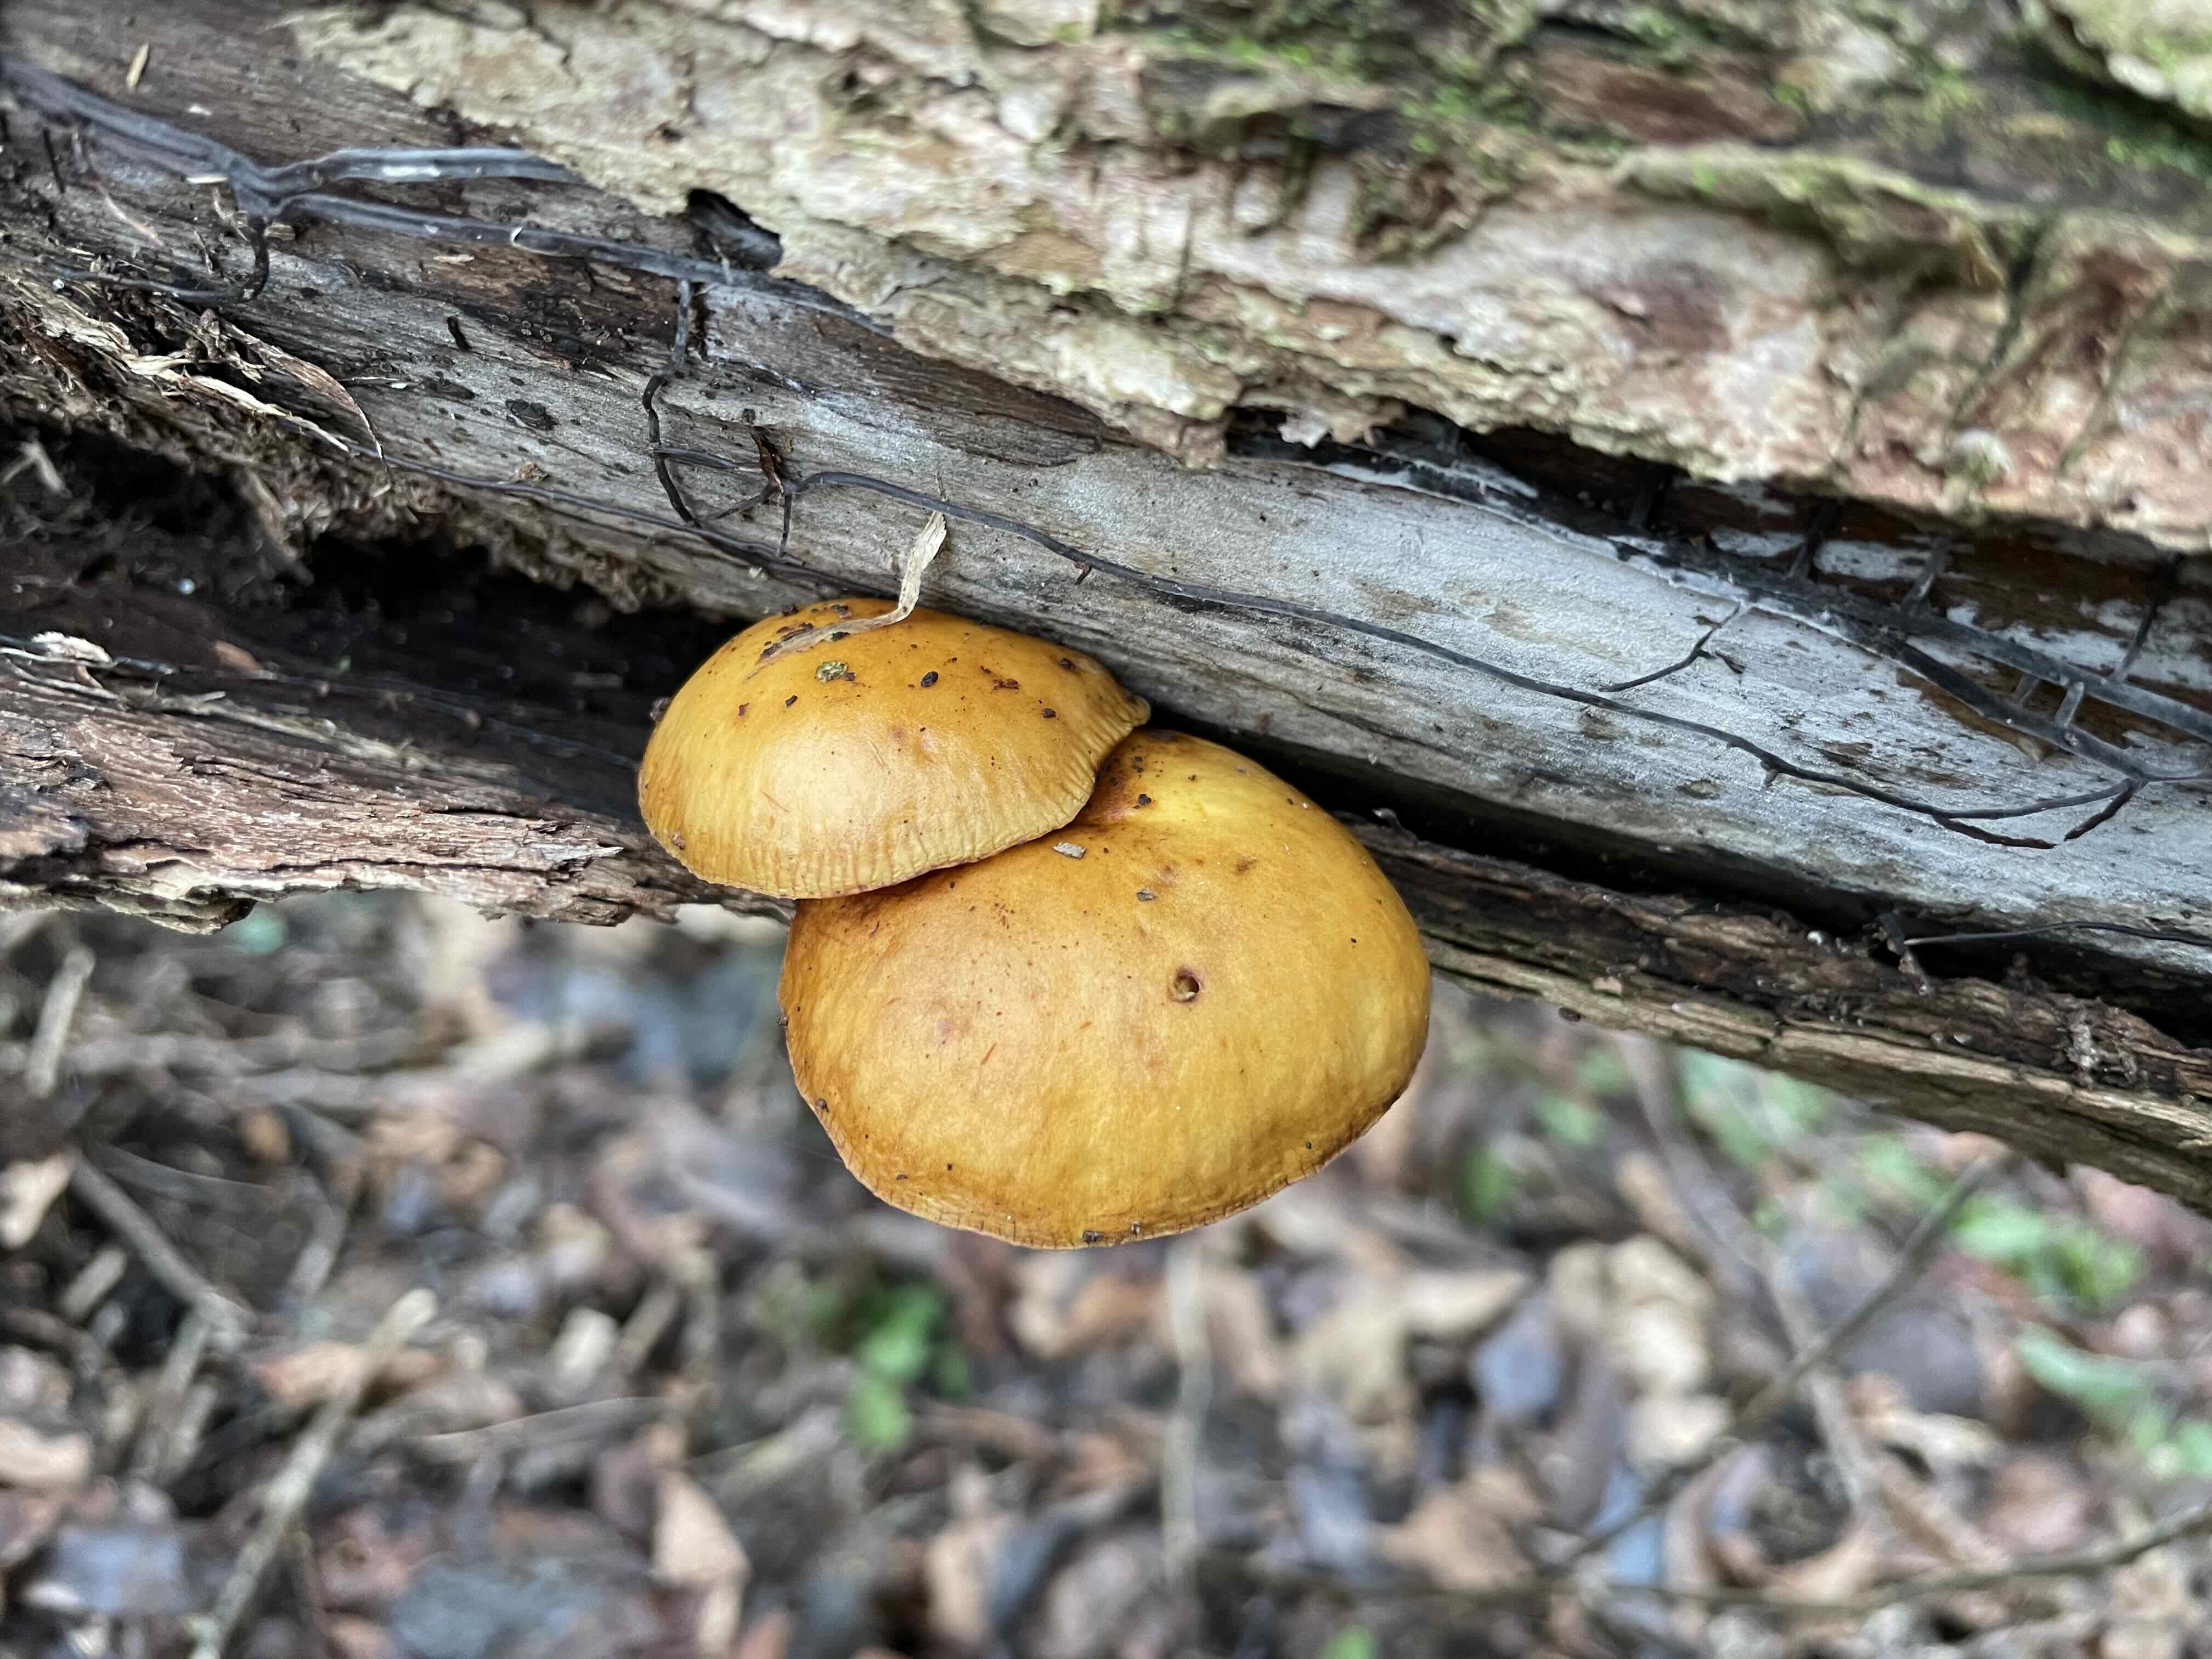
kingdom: Fungi
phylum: Basidiomycota
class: Agaricomycetes
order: Agaricales
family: Physalacriaceae
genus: Flammulina
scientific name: Flammulina
